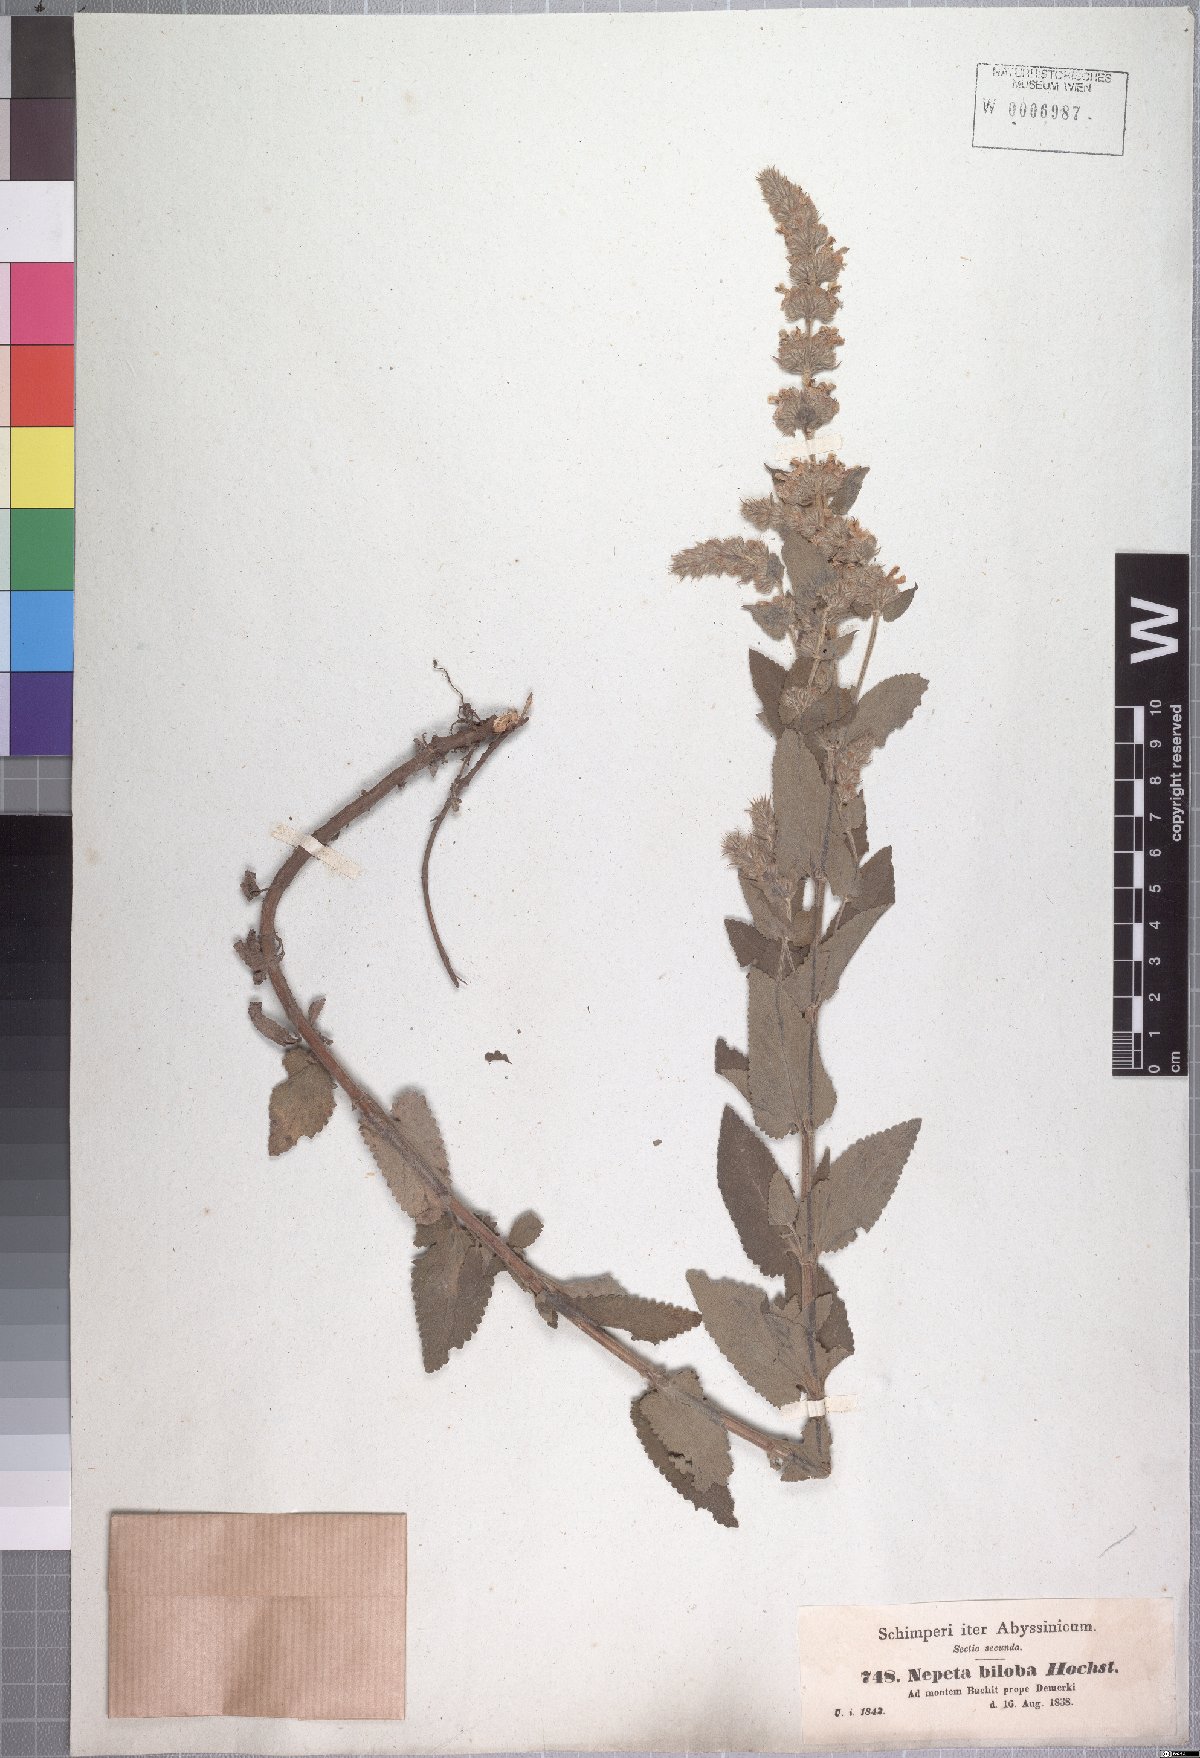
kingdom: Plantae
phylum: Tracheophyta
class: Magnoliopsida
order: Lamiales
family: Lamiaceae
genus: Nepeta
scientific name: Nepeta azurea
